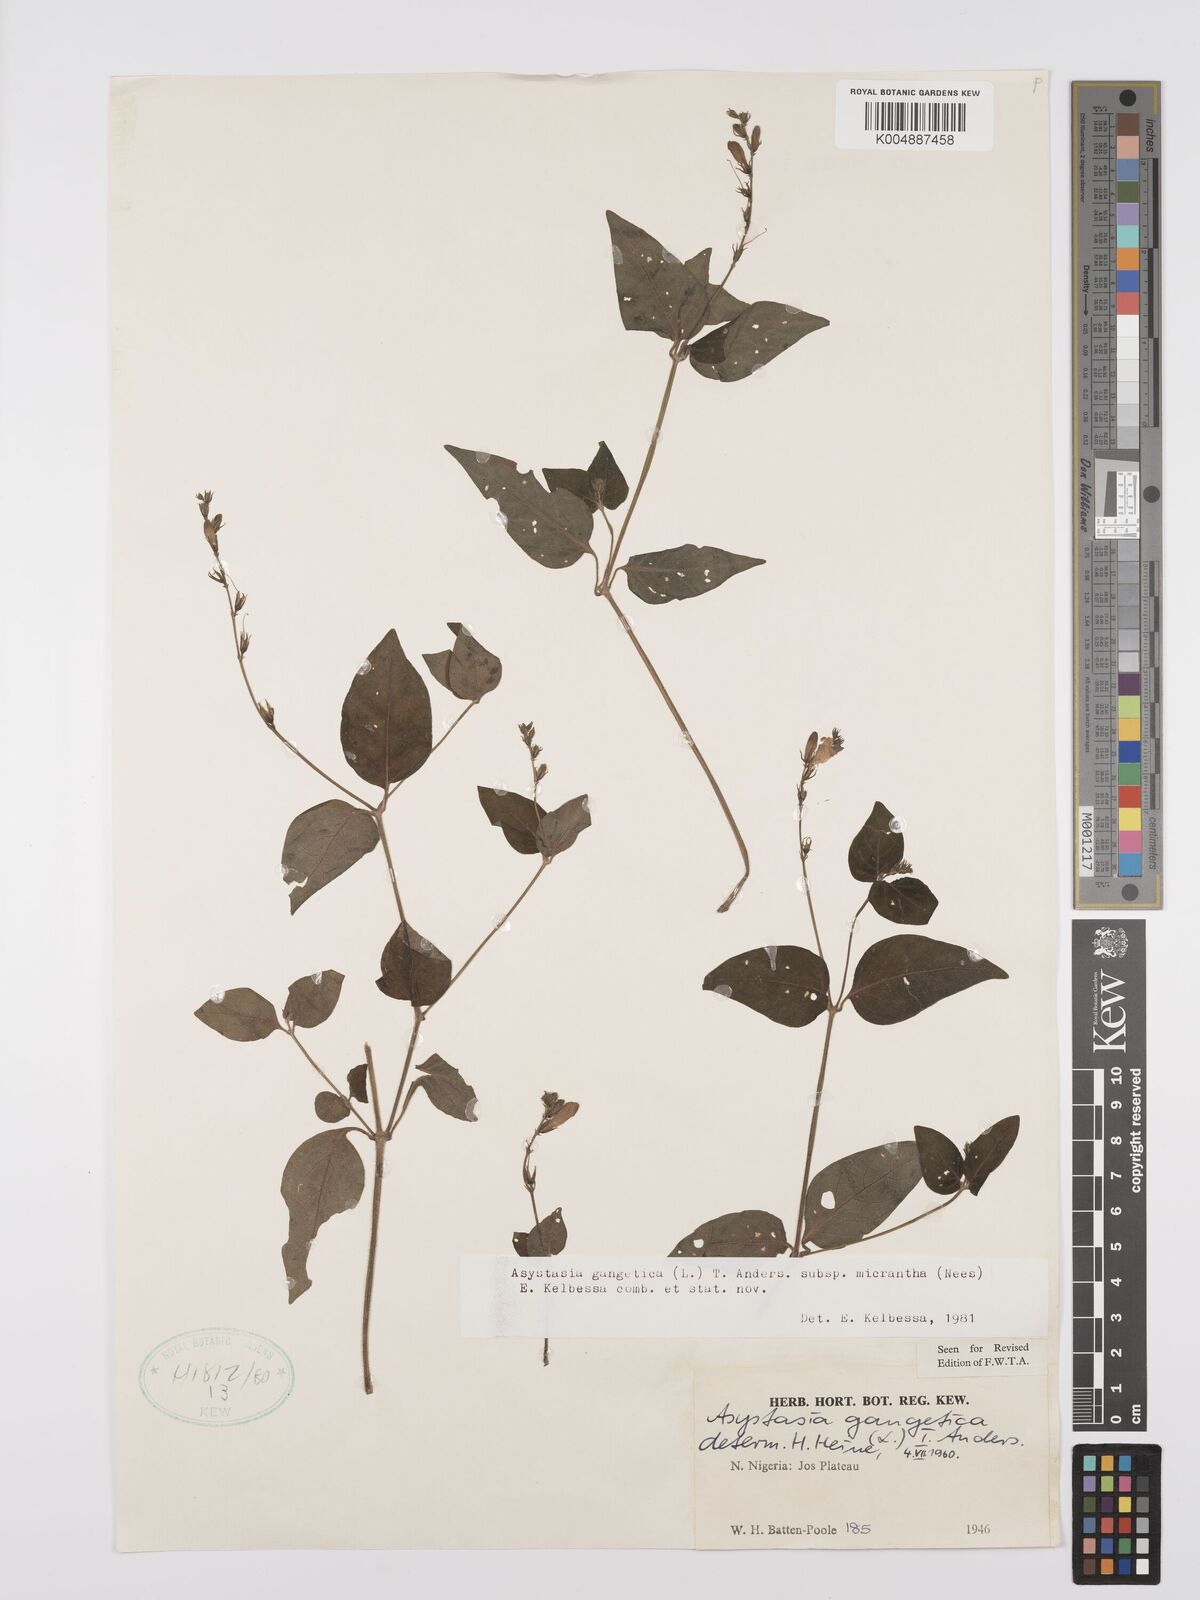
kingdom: Plantae
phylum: Tracheophyta
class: Magnoliopsida
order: Lamiales
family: Acanthaceae
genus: Asystasia
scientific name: Asystasia intrusa
